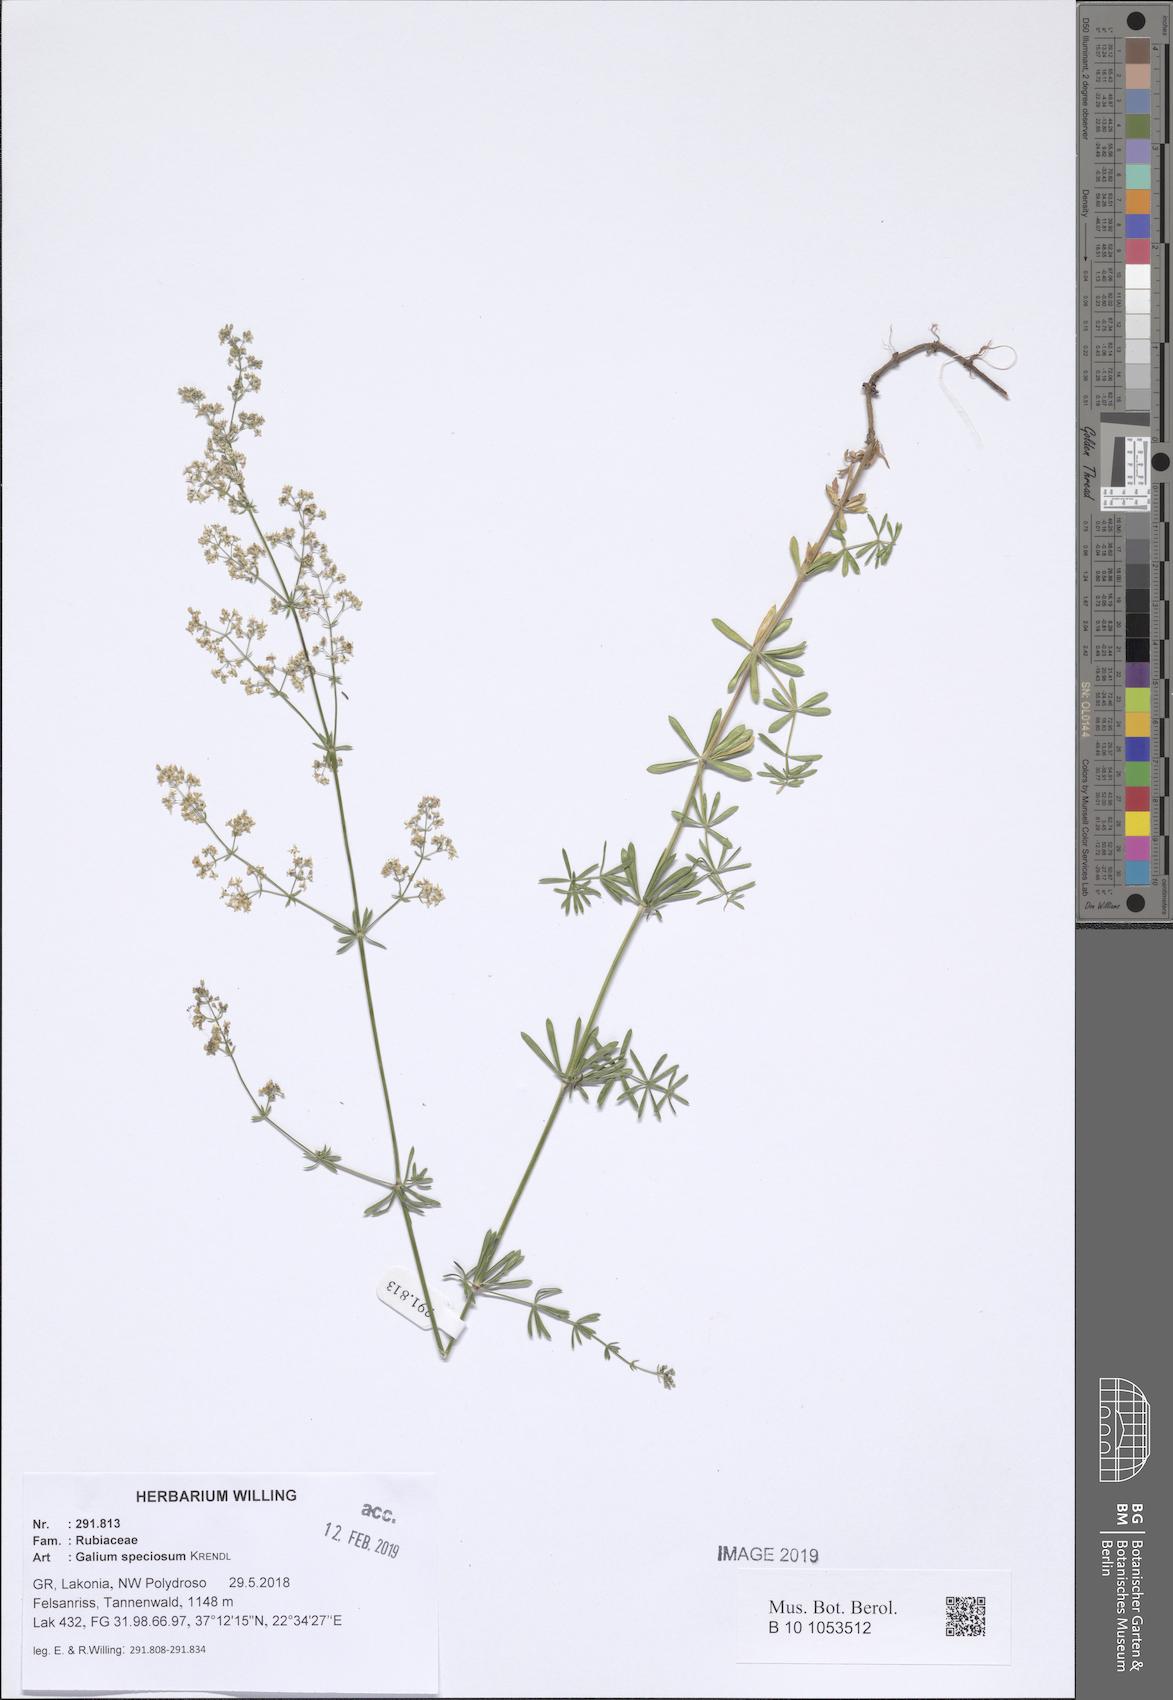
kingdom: Plantae
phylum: Tracheophyta
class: Magnoliopsida
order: Gentianales
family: Rubiaceae
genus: Galium
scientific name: Galium speciosum
